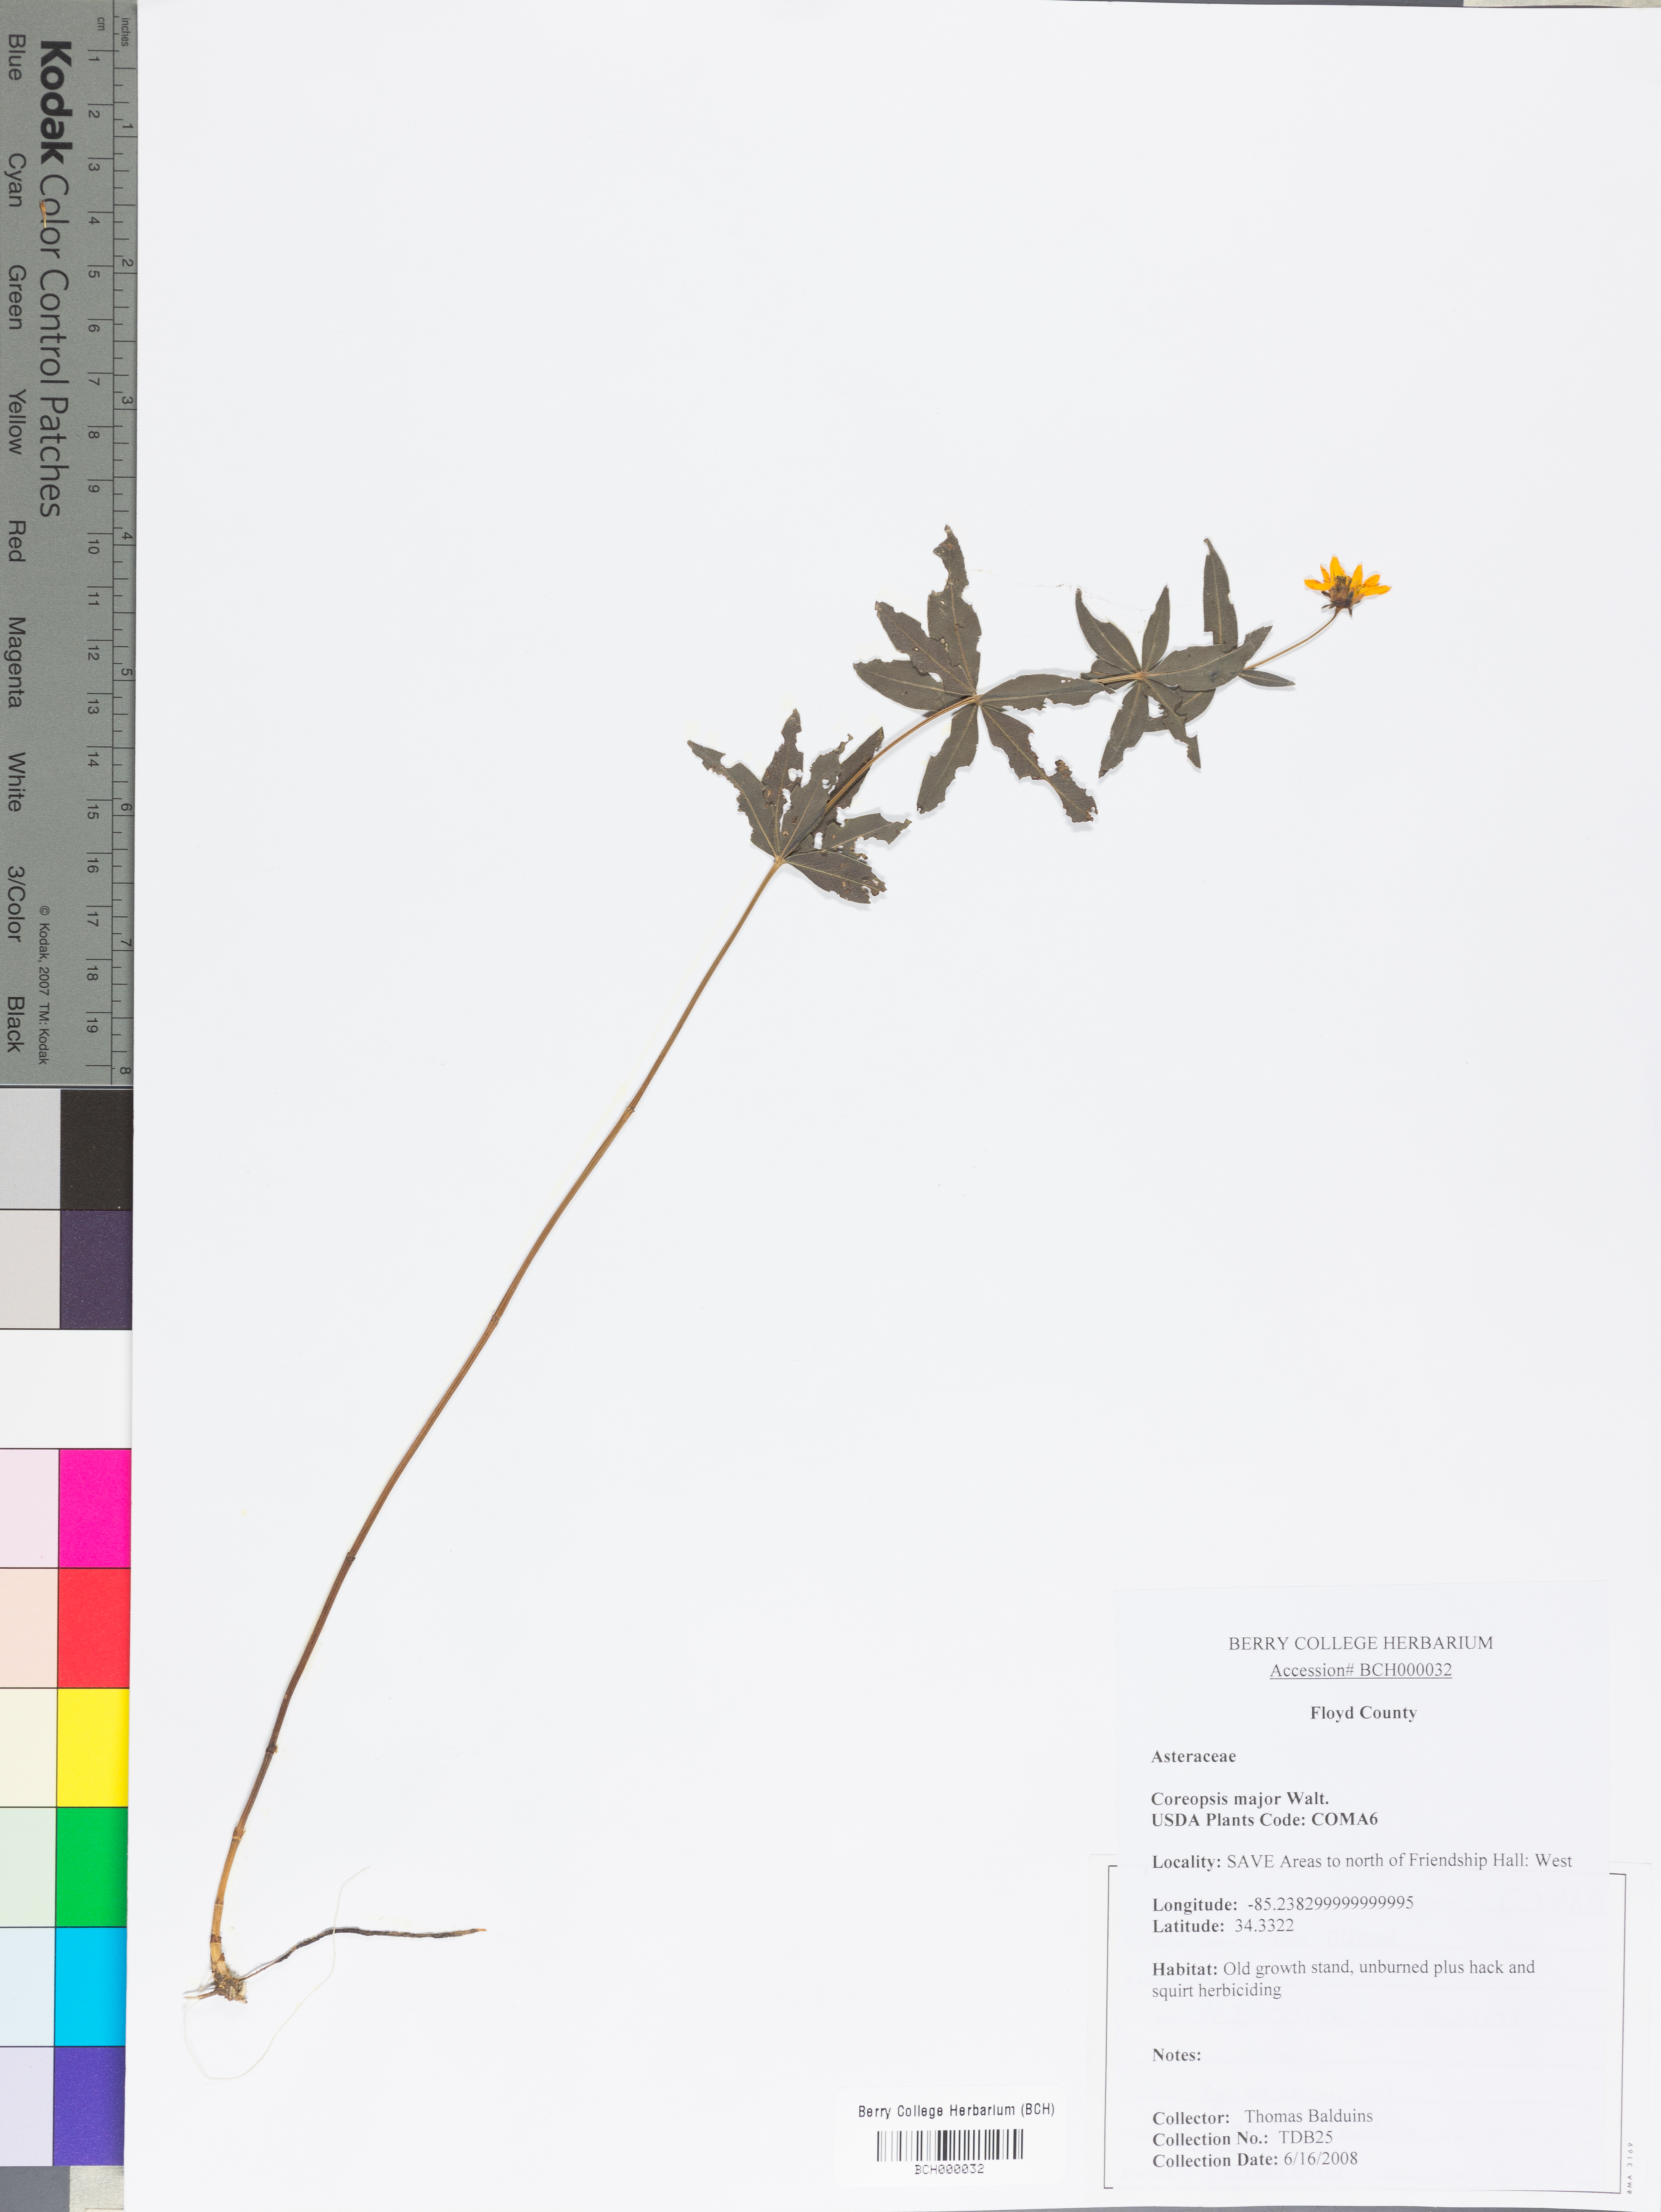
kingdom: Plantae
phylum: Tracheophyta
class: Magnoliopsida
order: Asterales
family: Asteraceae
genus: Coreopsis
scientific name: Coreopsis major
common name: Forest tickseed
